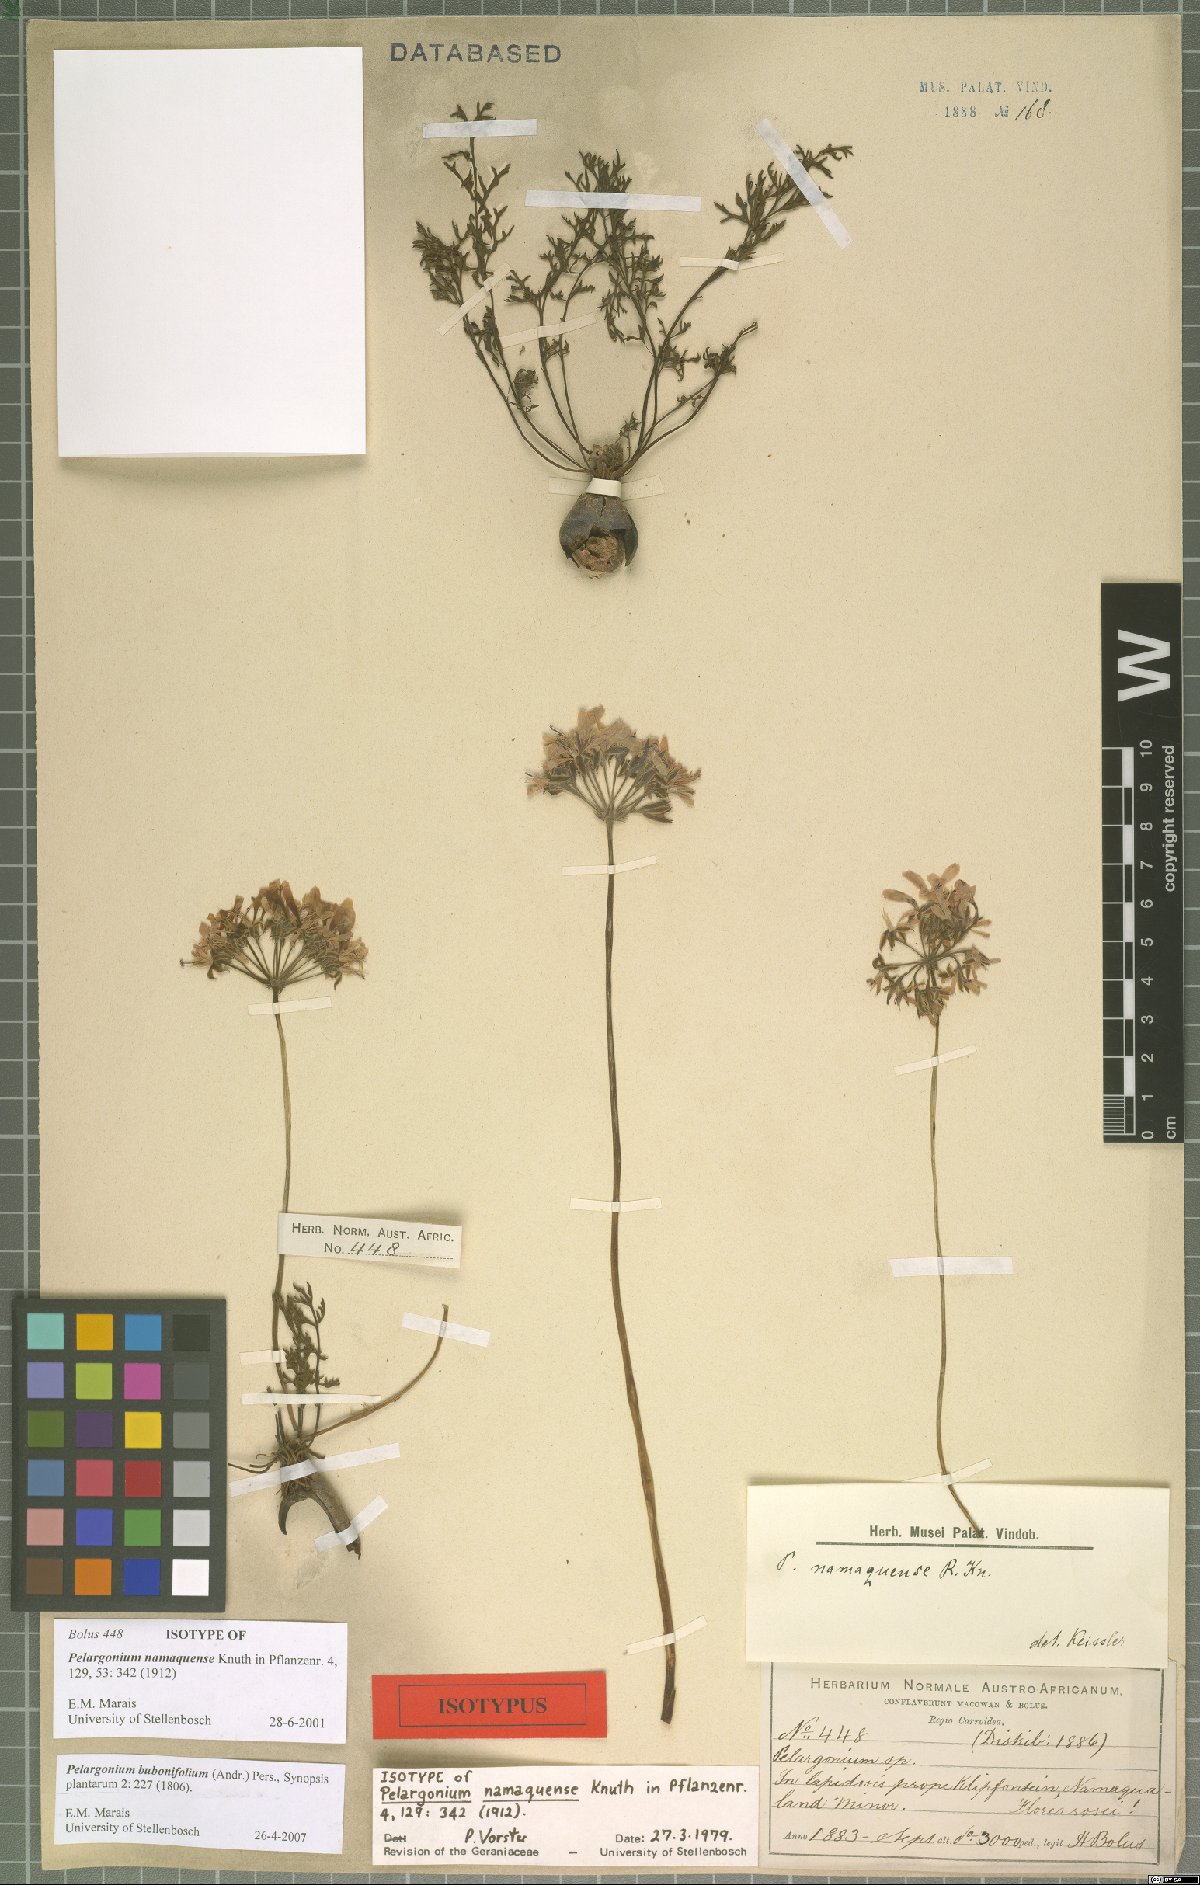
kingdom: Plantae
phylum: Tracheophyta
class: Magnoliopsida
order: Geraniales
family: Geraniaceae
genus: Pelargonium
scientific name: Pelargonium bubonifolium
